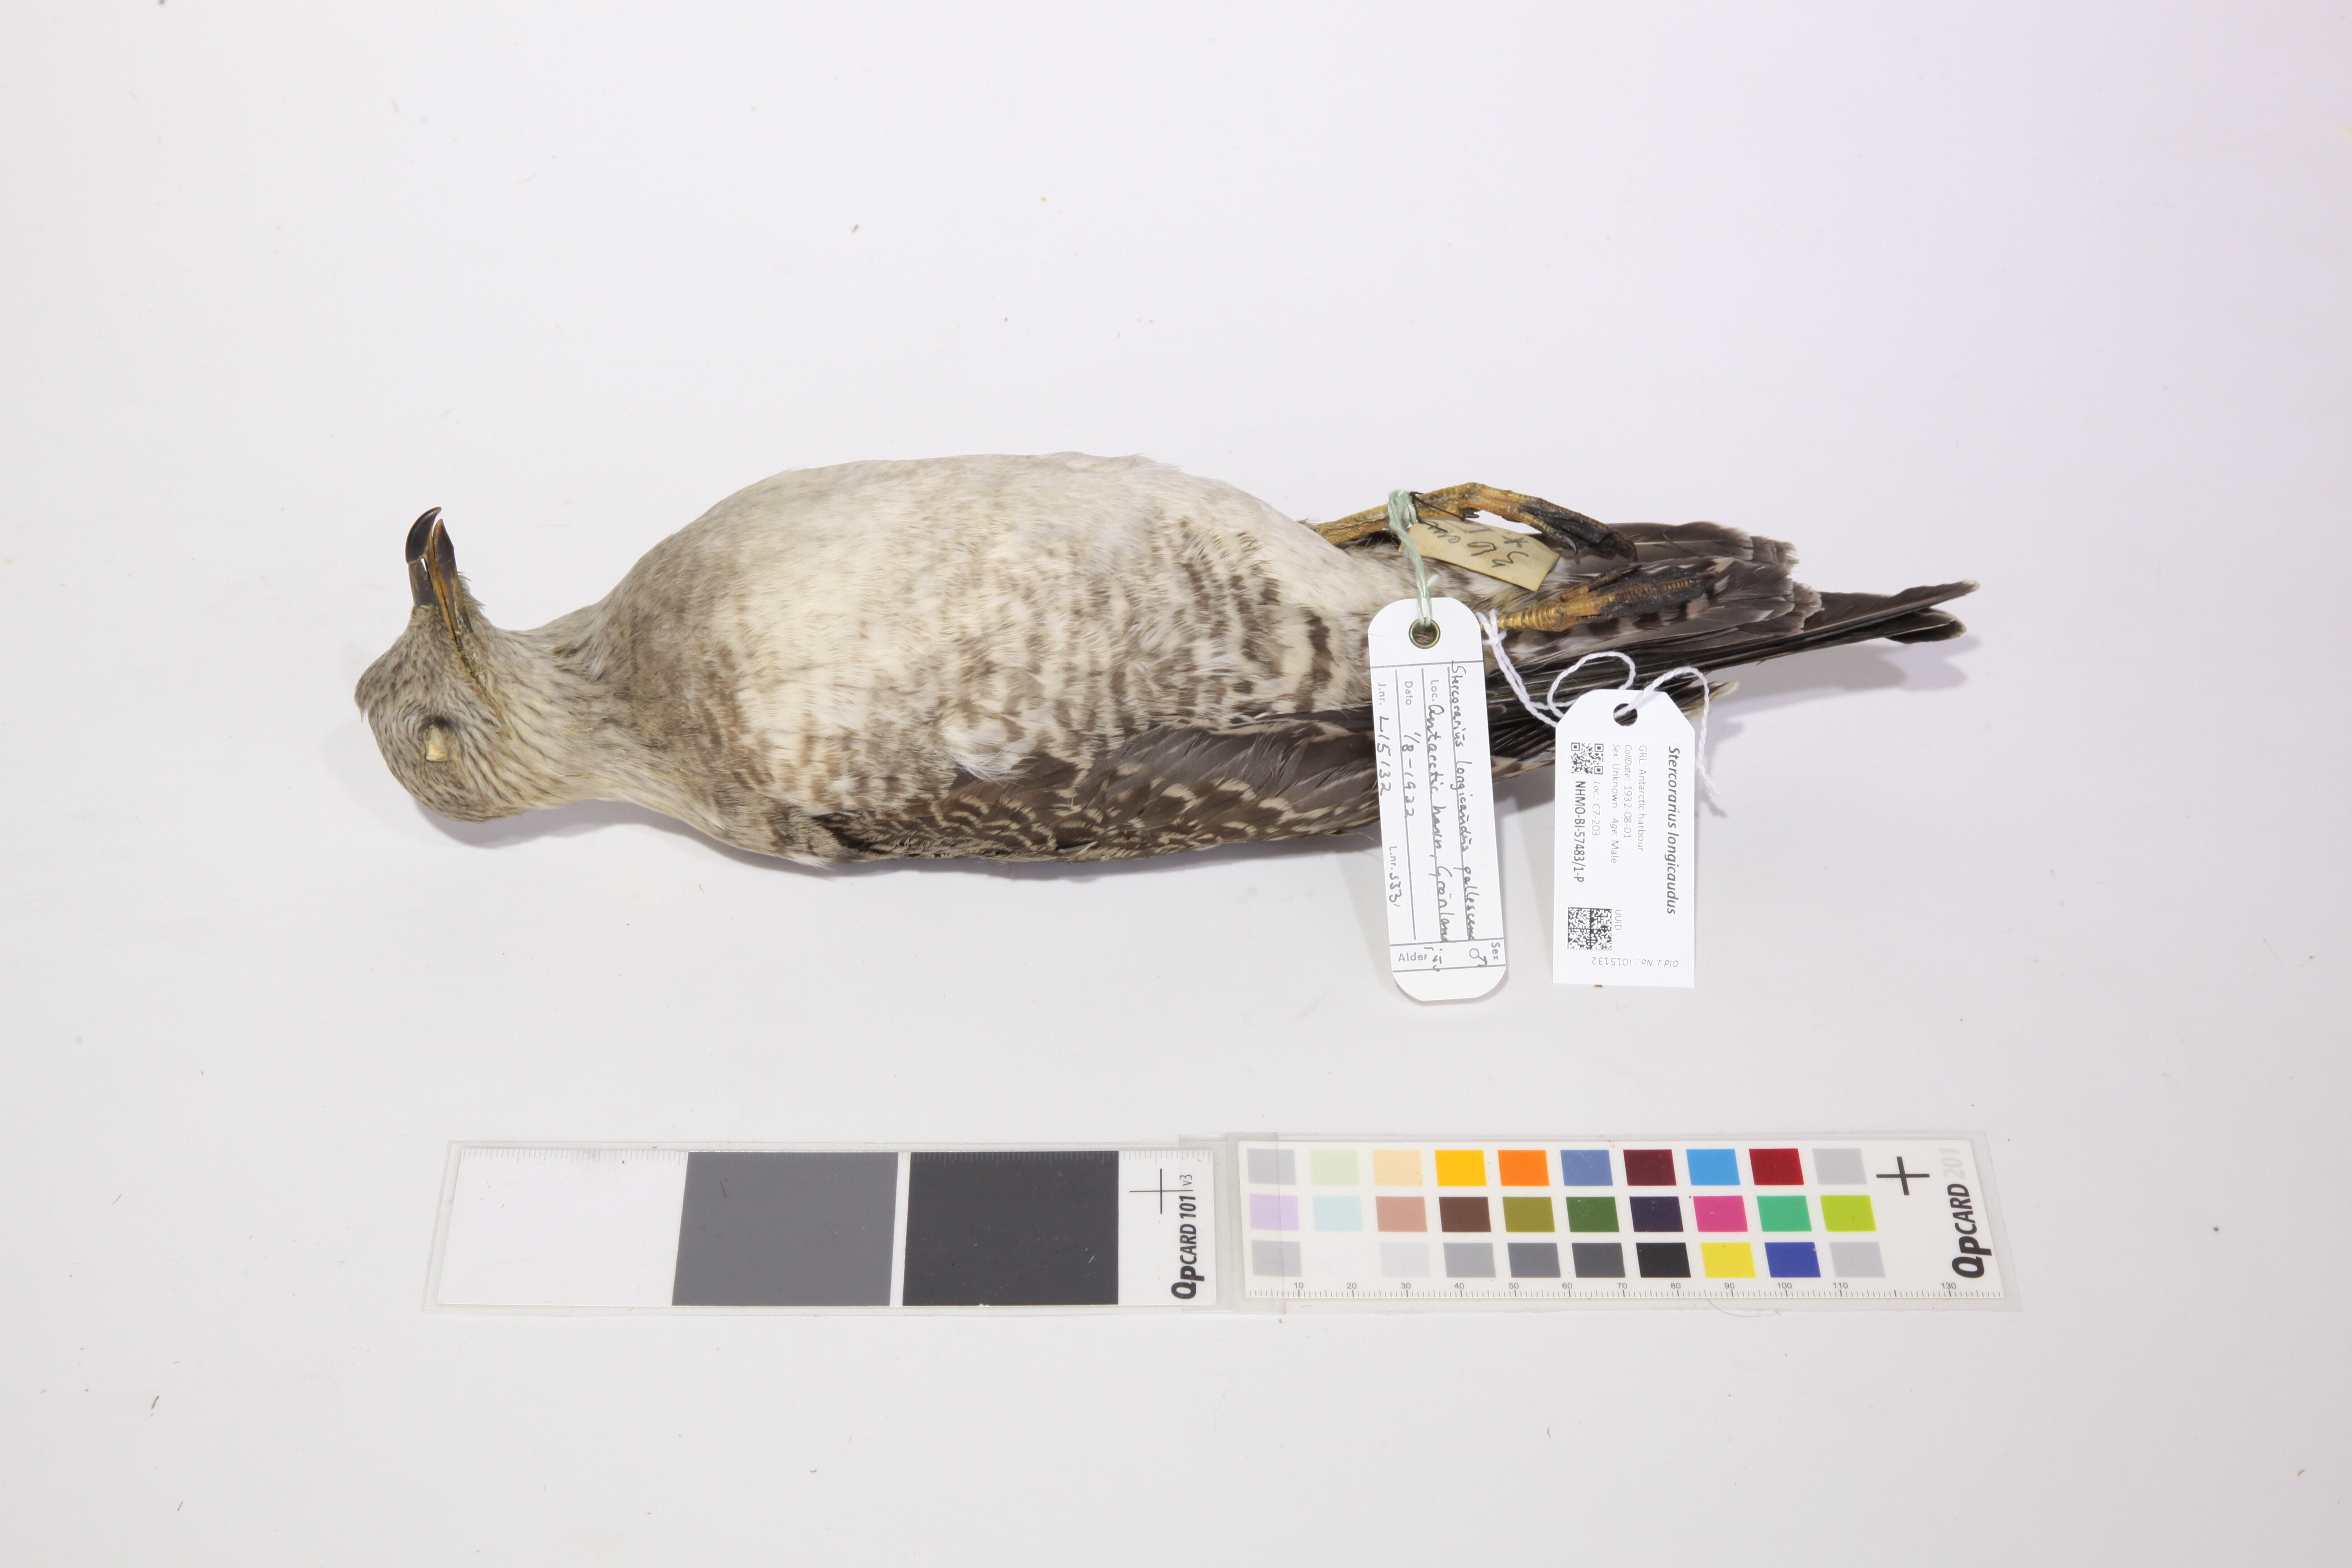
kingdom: Animalia
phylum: Chordata
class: Aves
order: Charadriiformes
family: Stercorariidae
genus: Stercorarius
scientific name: Stercorarius longicaudus
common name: Long-tailed jaeger
